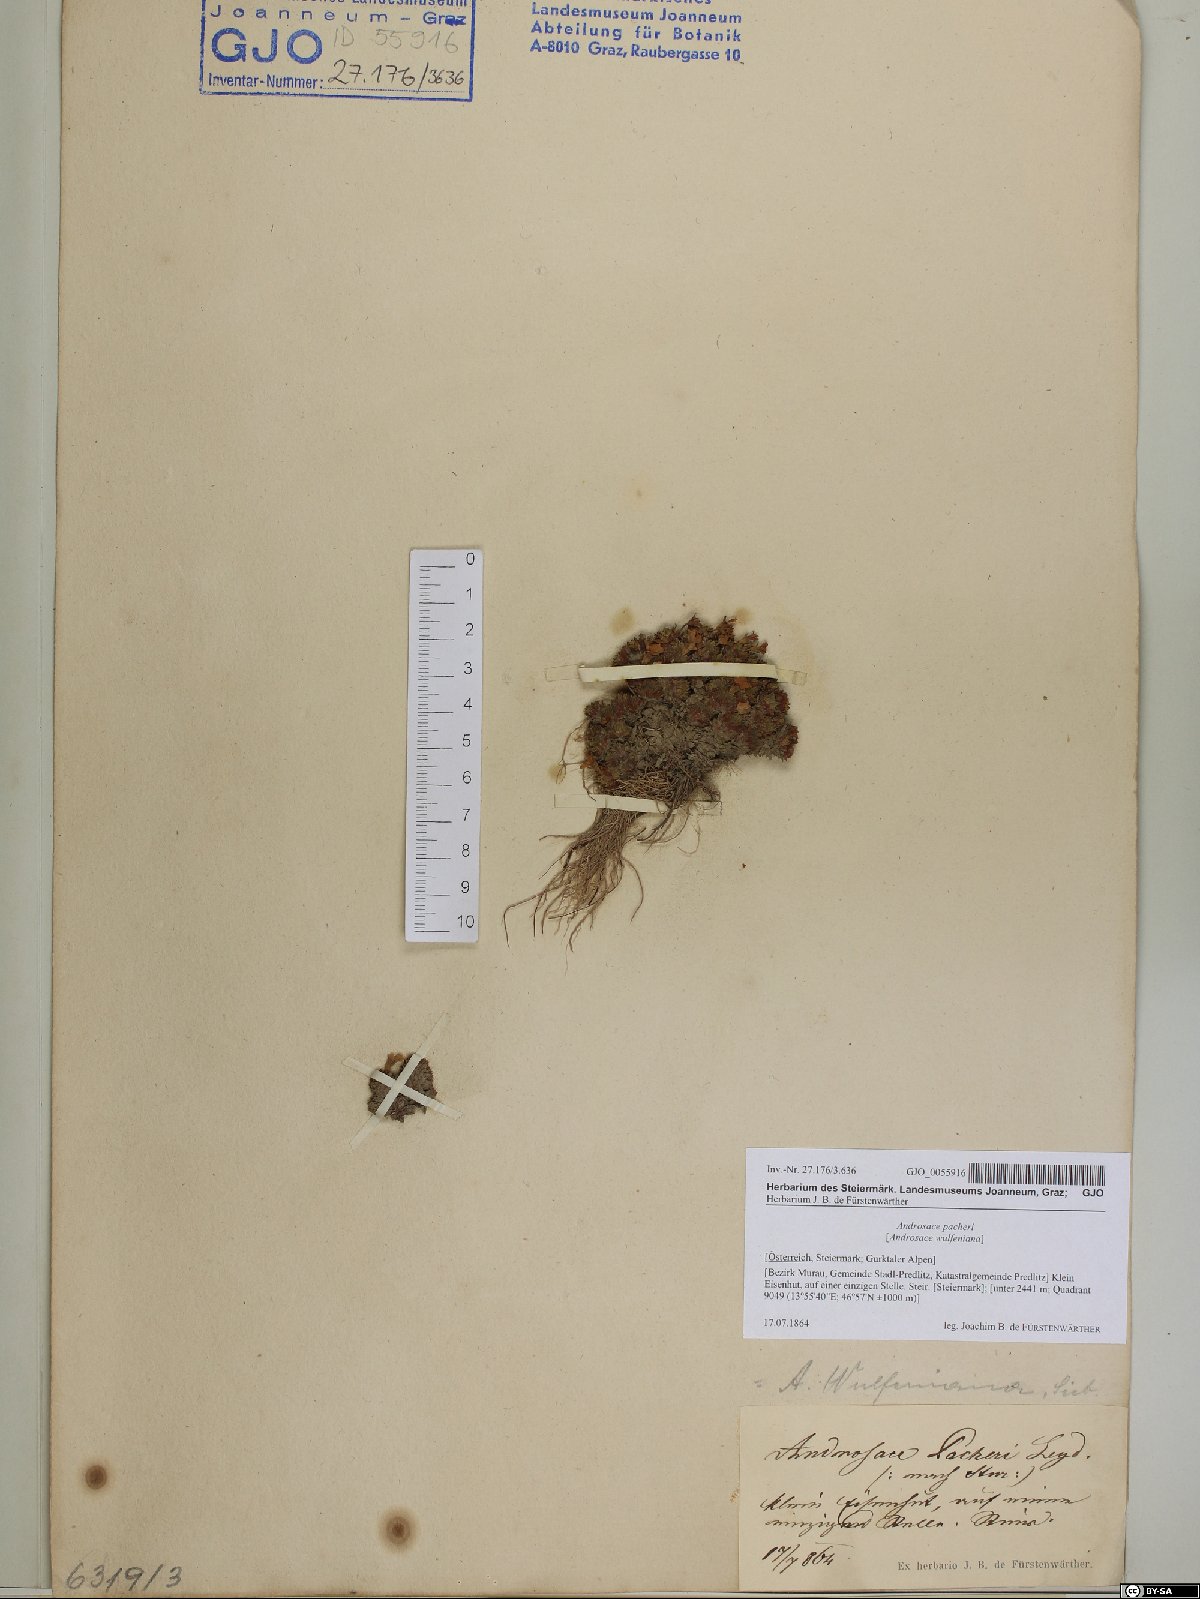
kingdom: Plantae
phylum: Tracheophyta
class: Magnoliopsida
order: Ericales
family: Primulaceae
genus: Androsace
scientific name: Androsace wulfeniana
